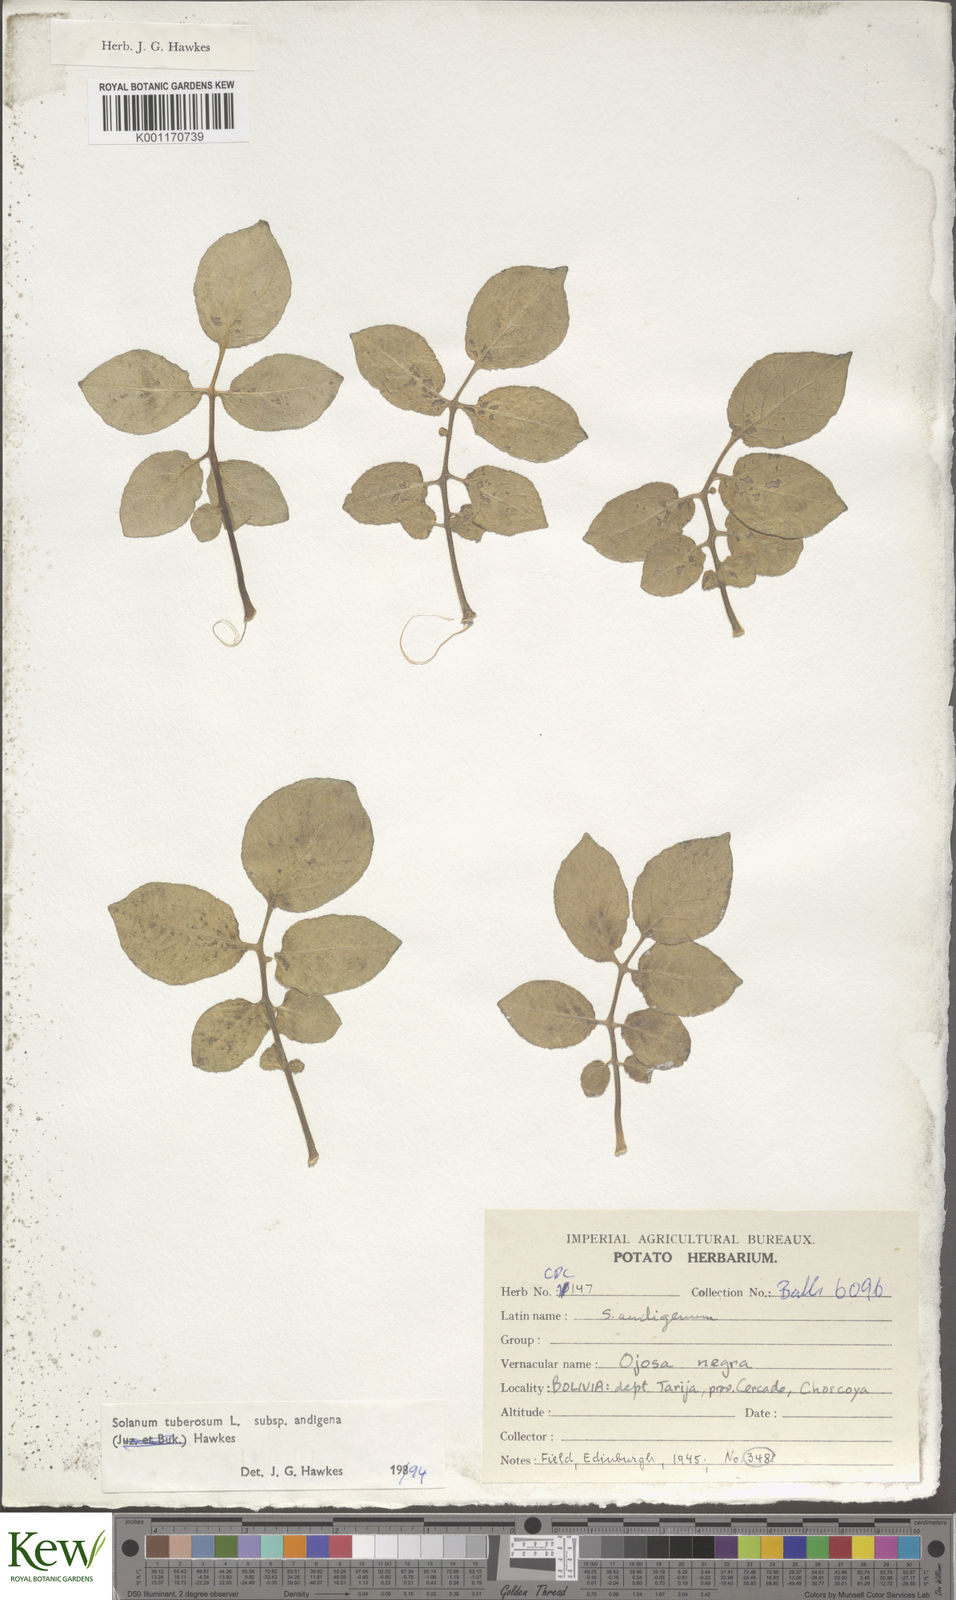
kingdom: Plantae
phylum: Tracheophyta
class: Magnoliopsida
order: Solanales
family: Solanaceae
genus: Solanum
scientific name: Solanum tuberosum
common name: Potato
